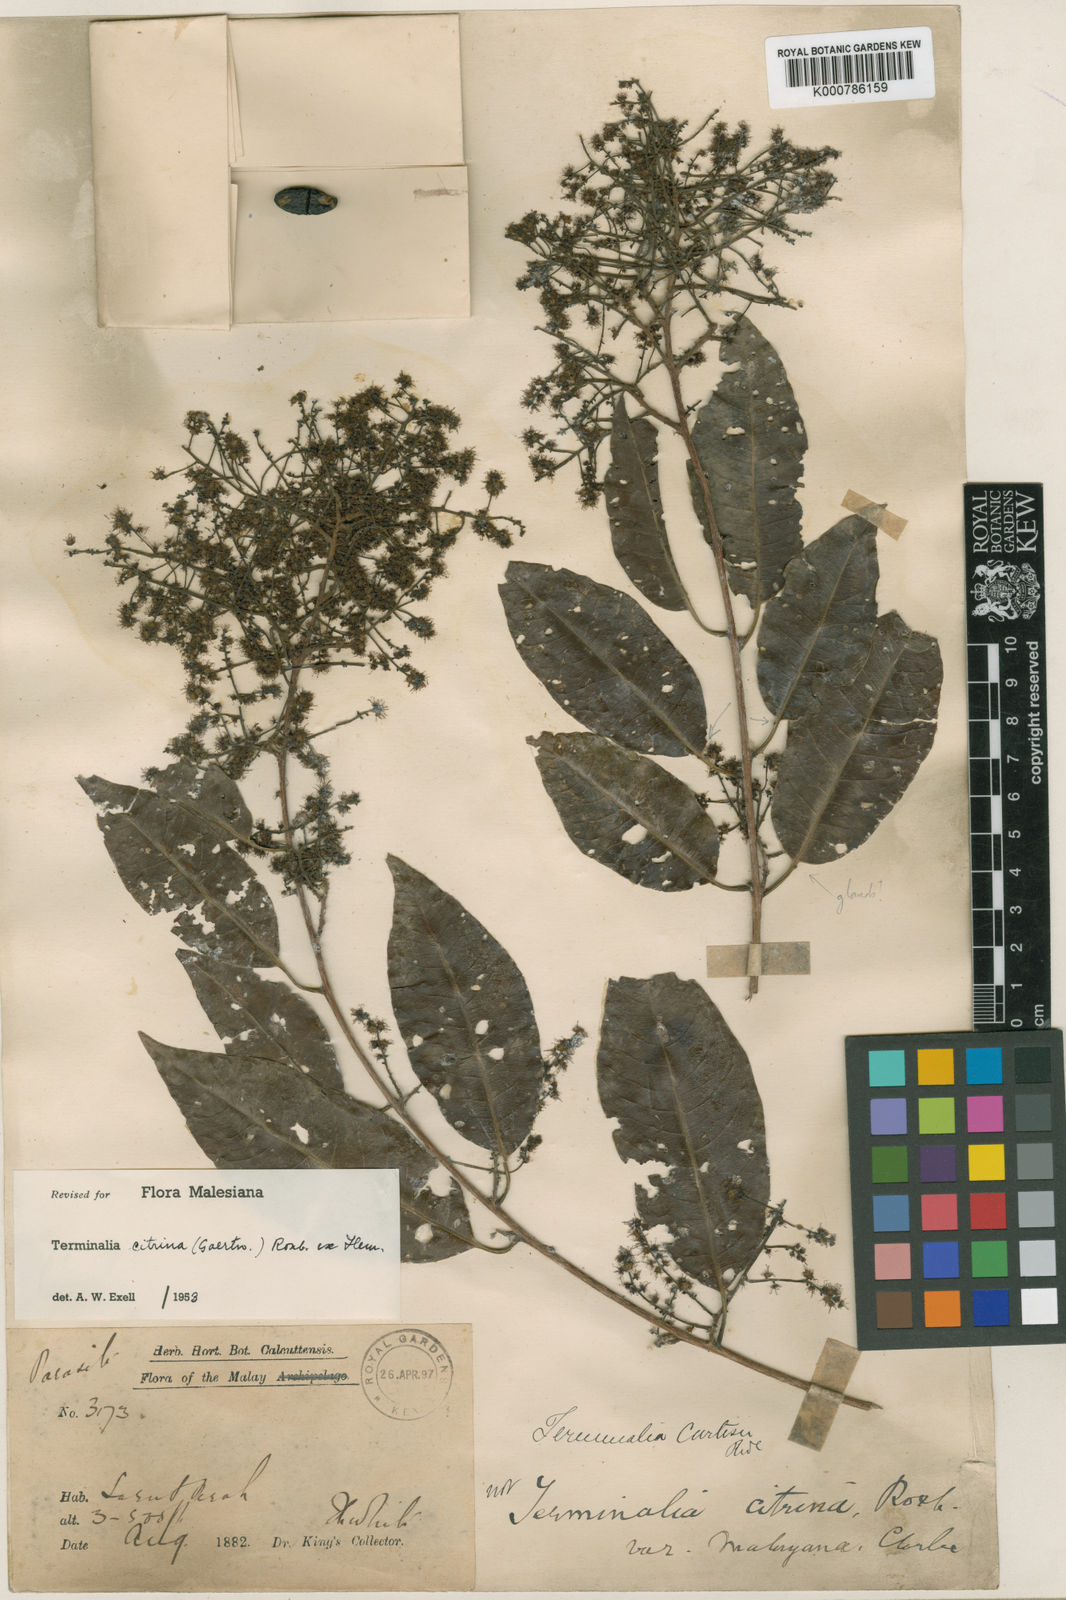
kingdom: Plantae
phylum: Tracheophyta
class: Magnoliopsida
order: Myrtales
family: Combretaceae
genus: Terminalia
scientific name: Terminalia
